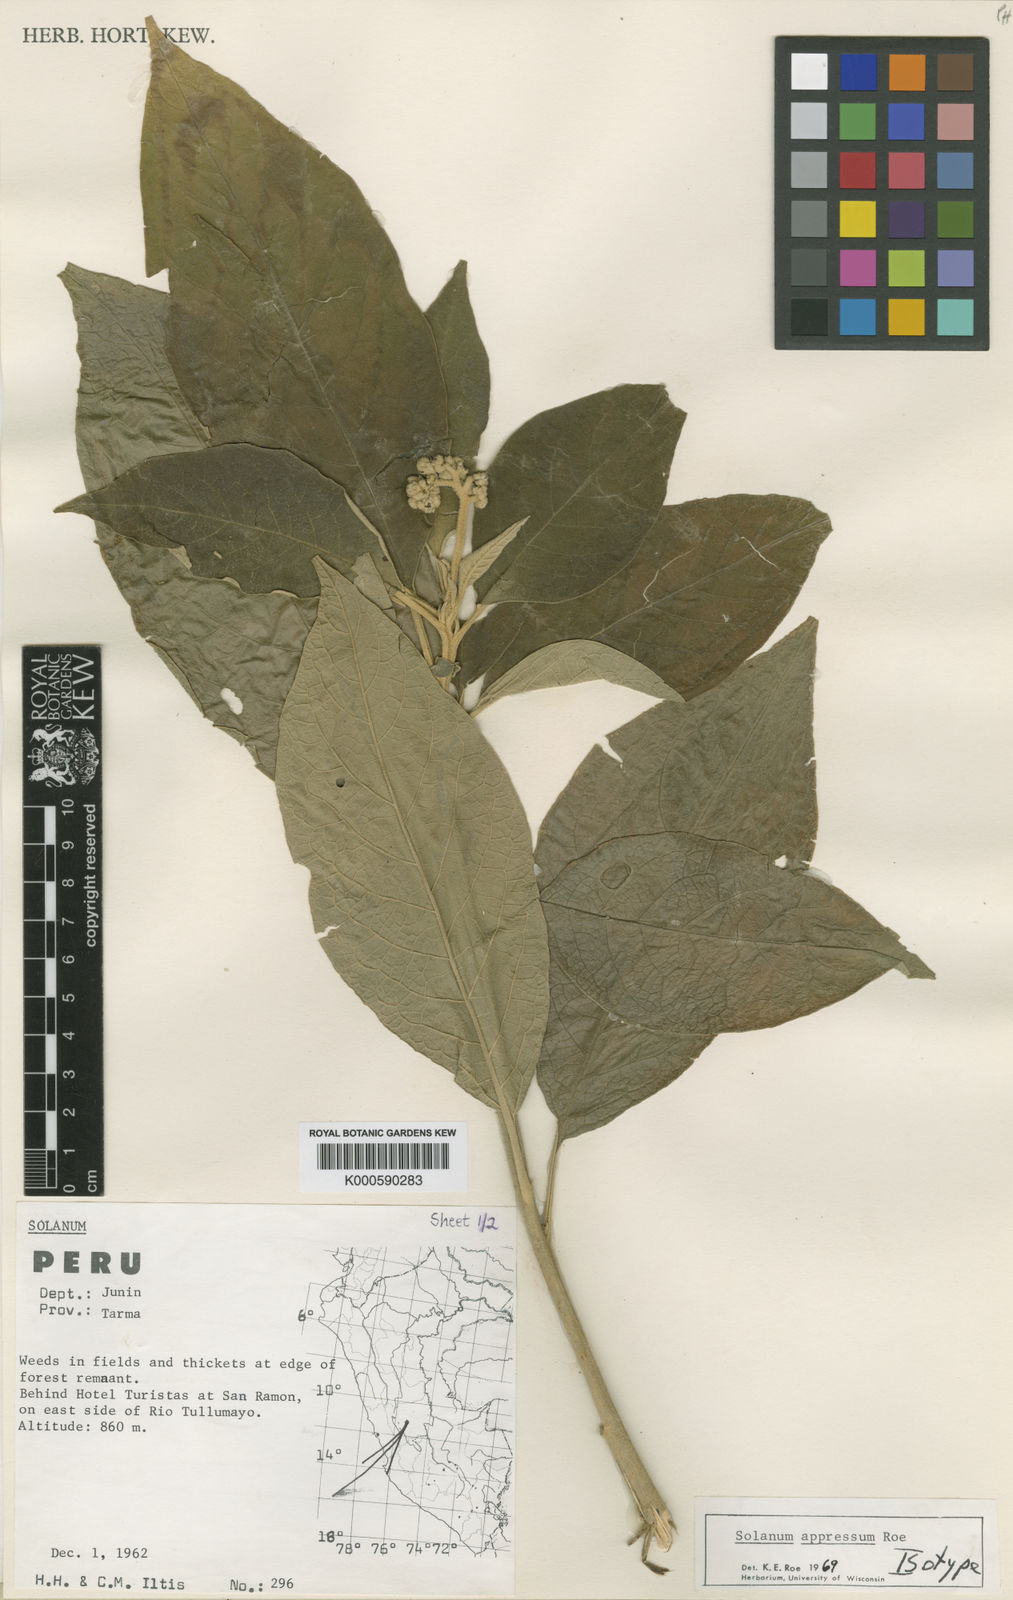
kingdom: Plantae
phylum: Tracheophyta
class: Magnoliopsida
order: Solanales
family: Solanaceae
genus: Solanum
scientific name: Solanum appressum
